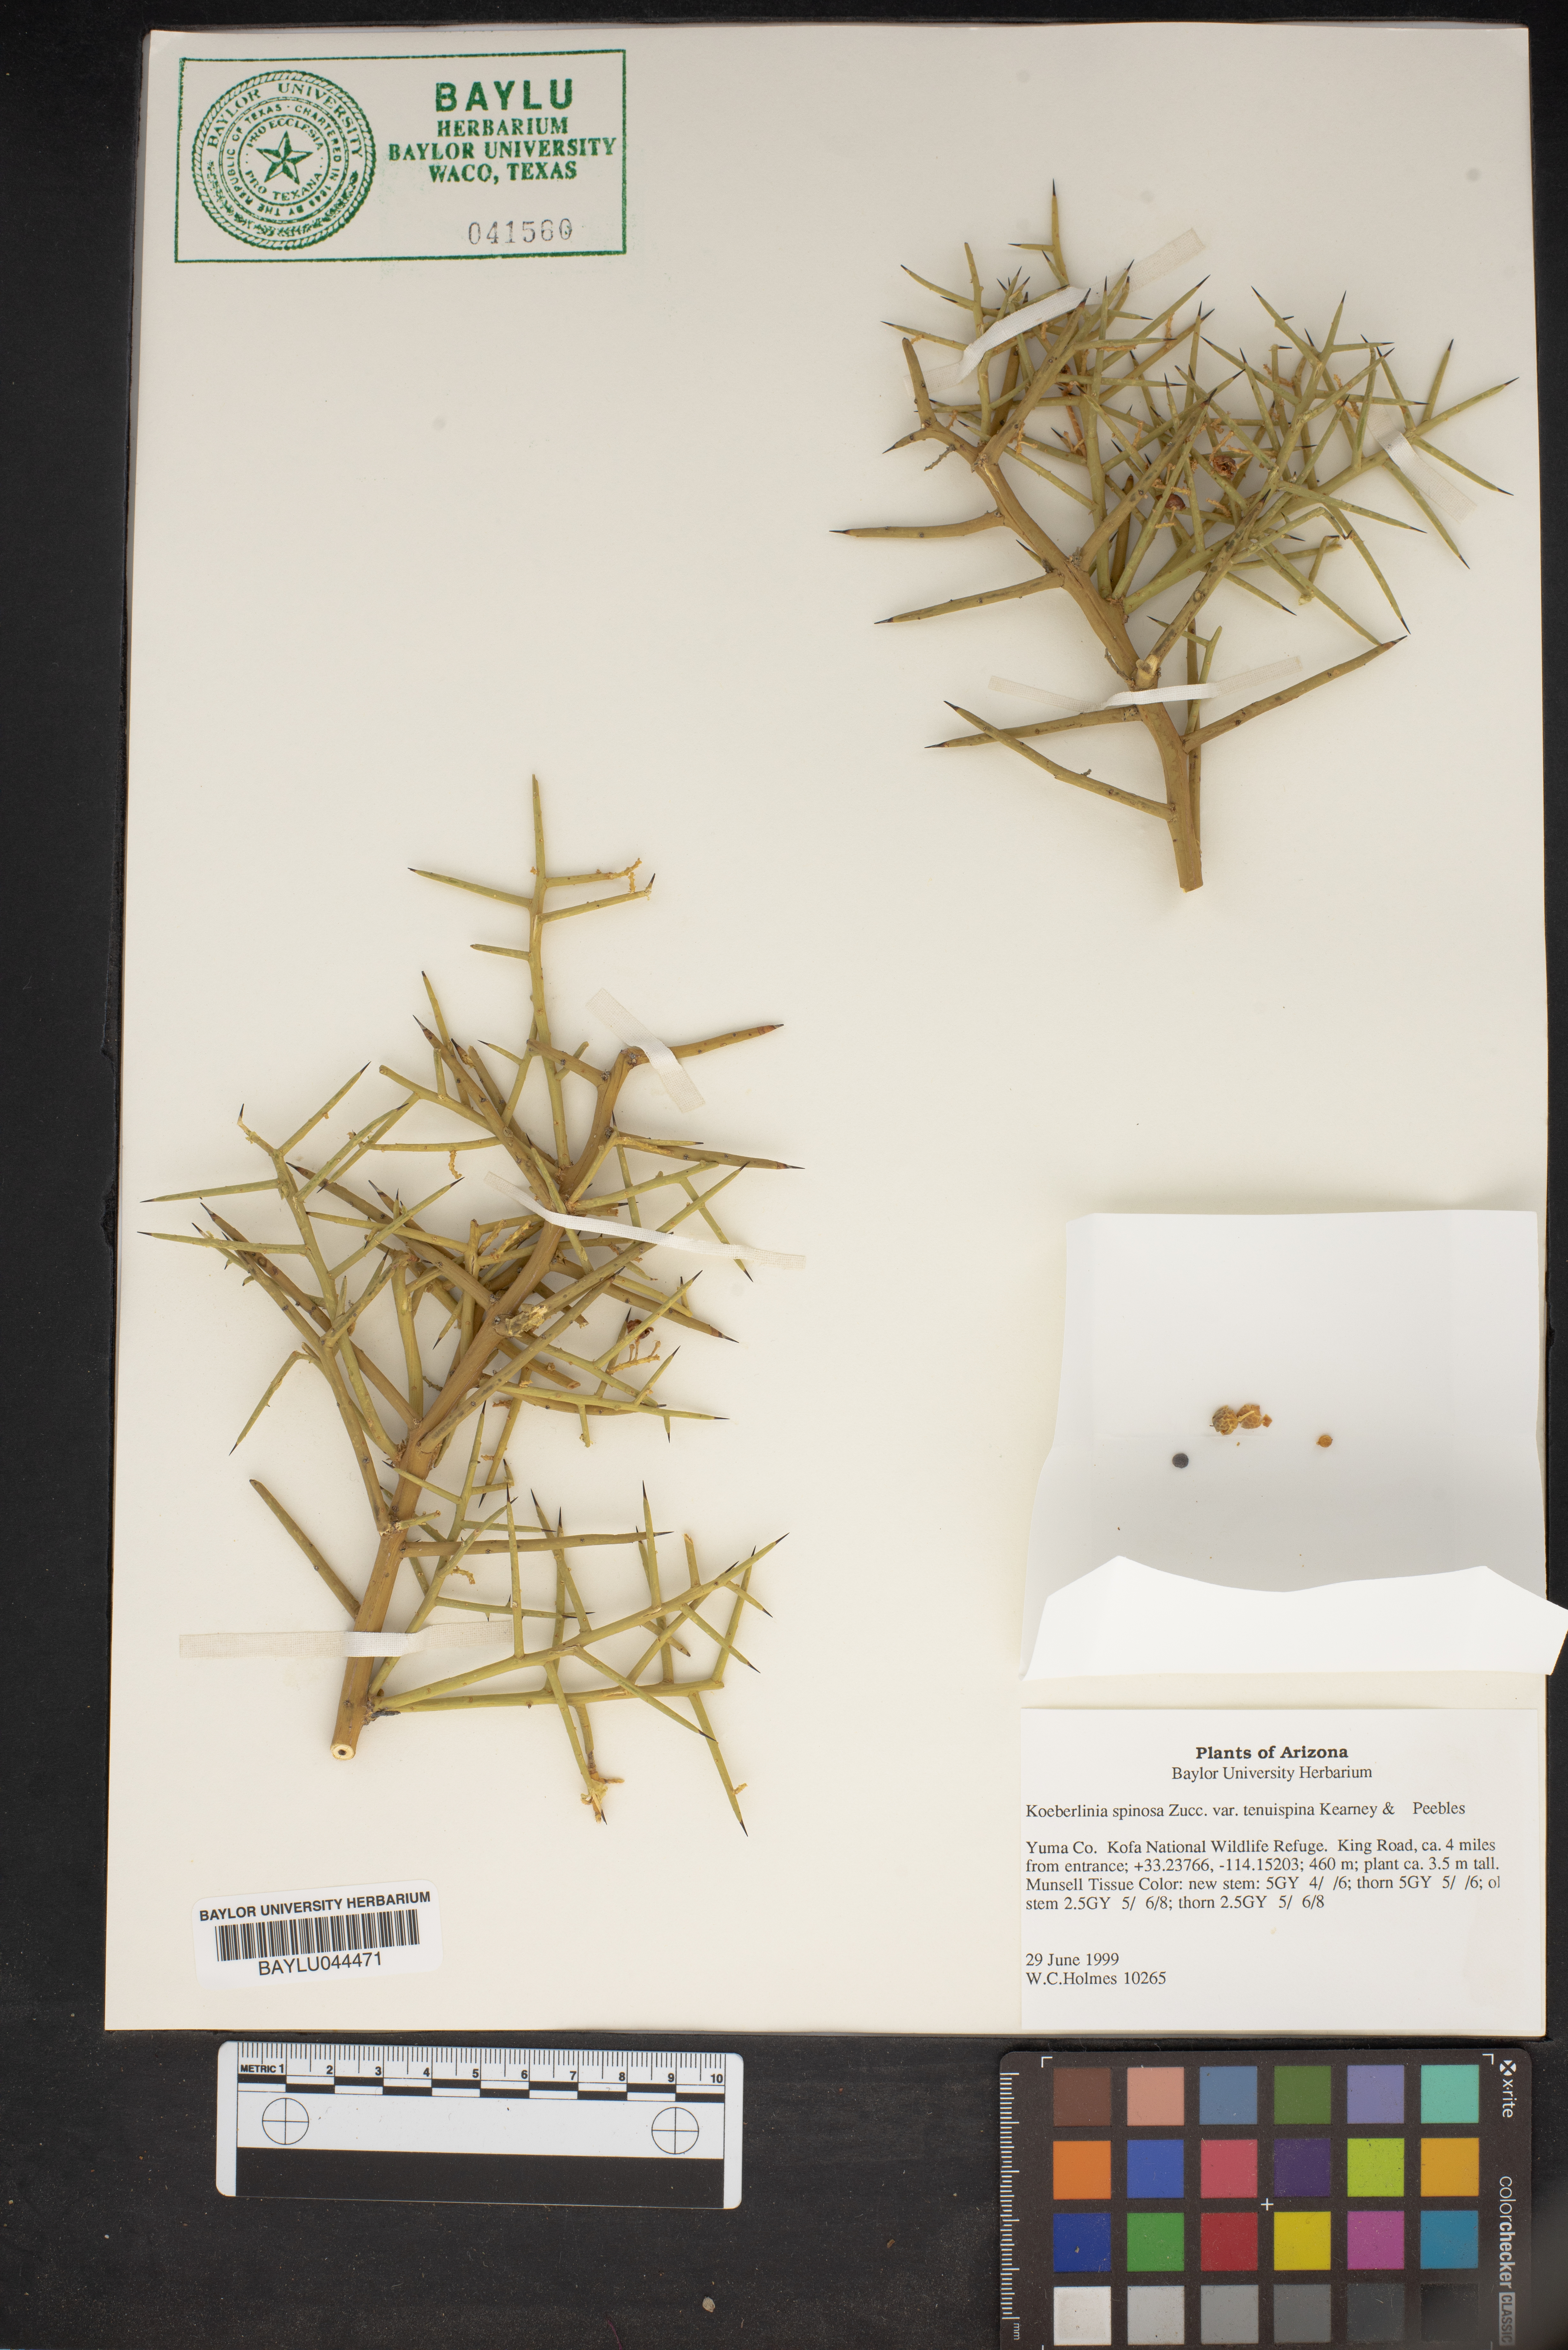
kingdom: Plantae
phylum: Tracheophyta
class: Magnoliopsida
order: Brassicales
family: Koeberliniaceae
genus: Koeberlinia
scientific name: Koeberlinia spinosa
